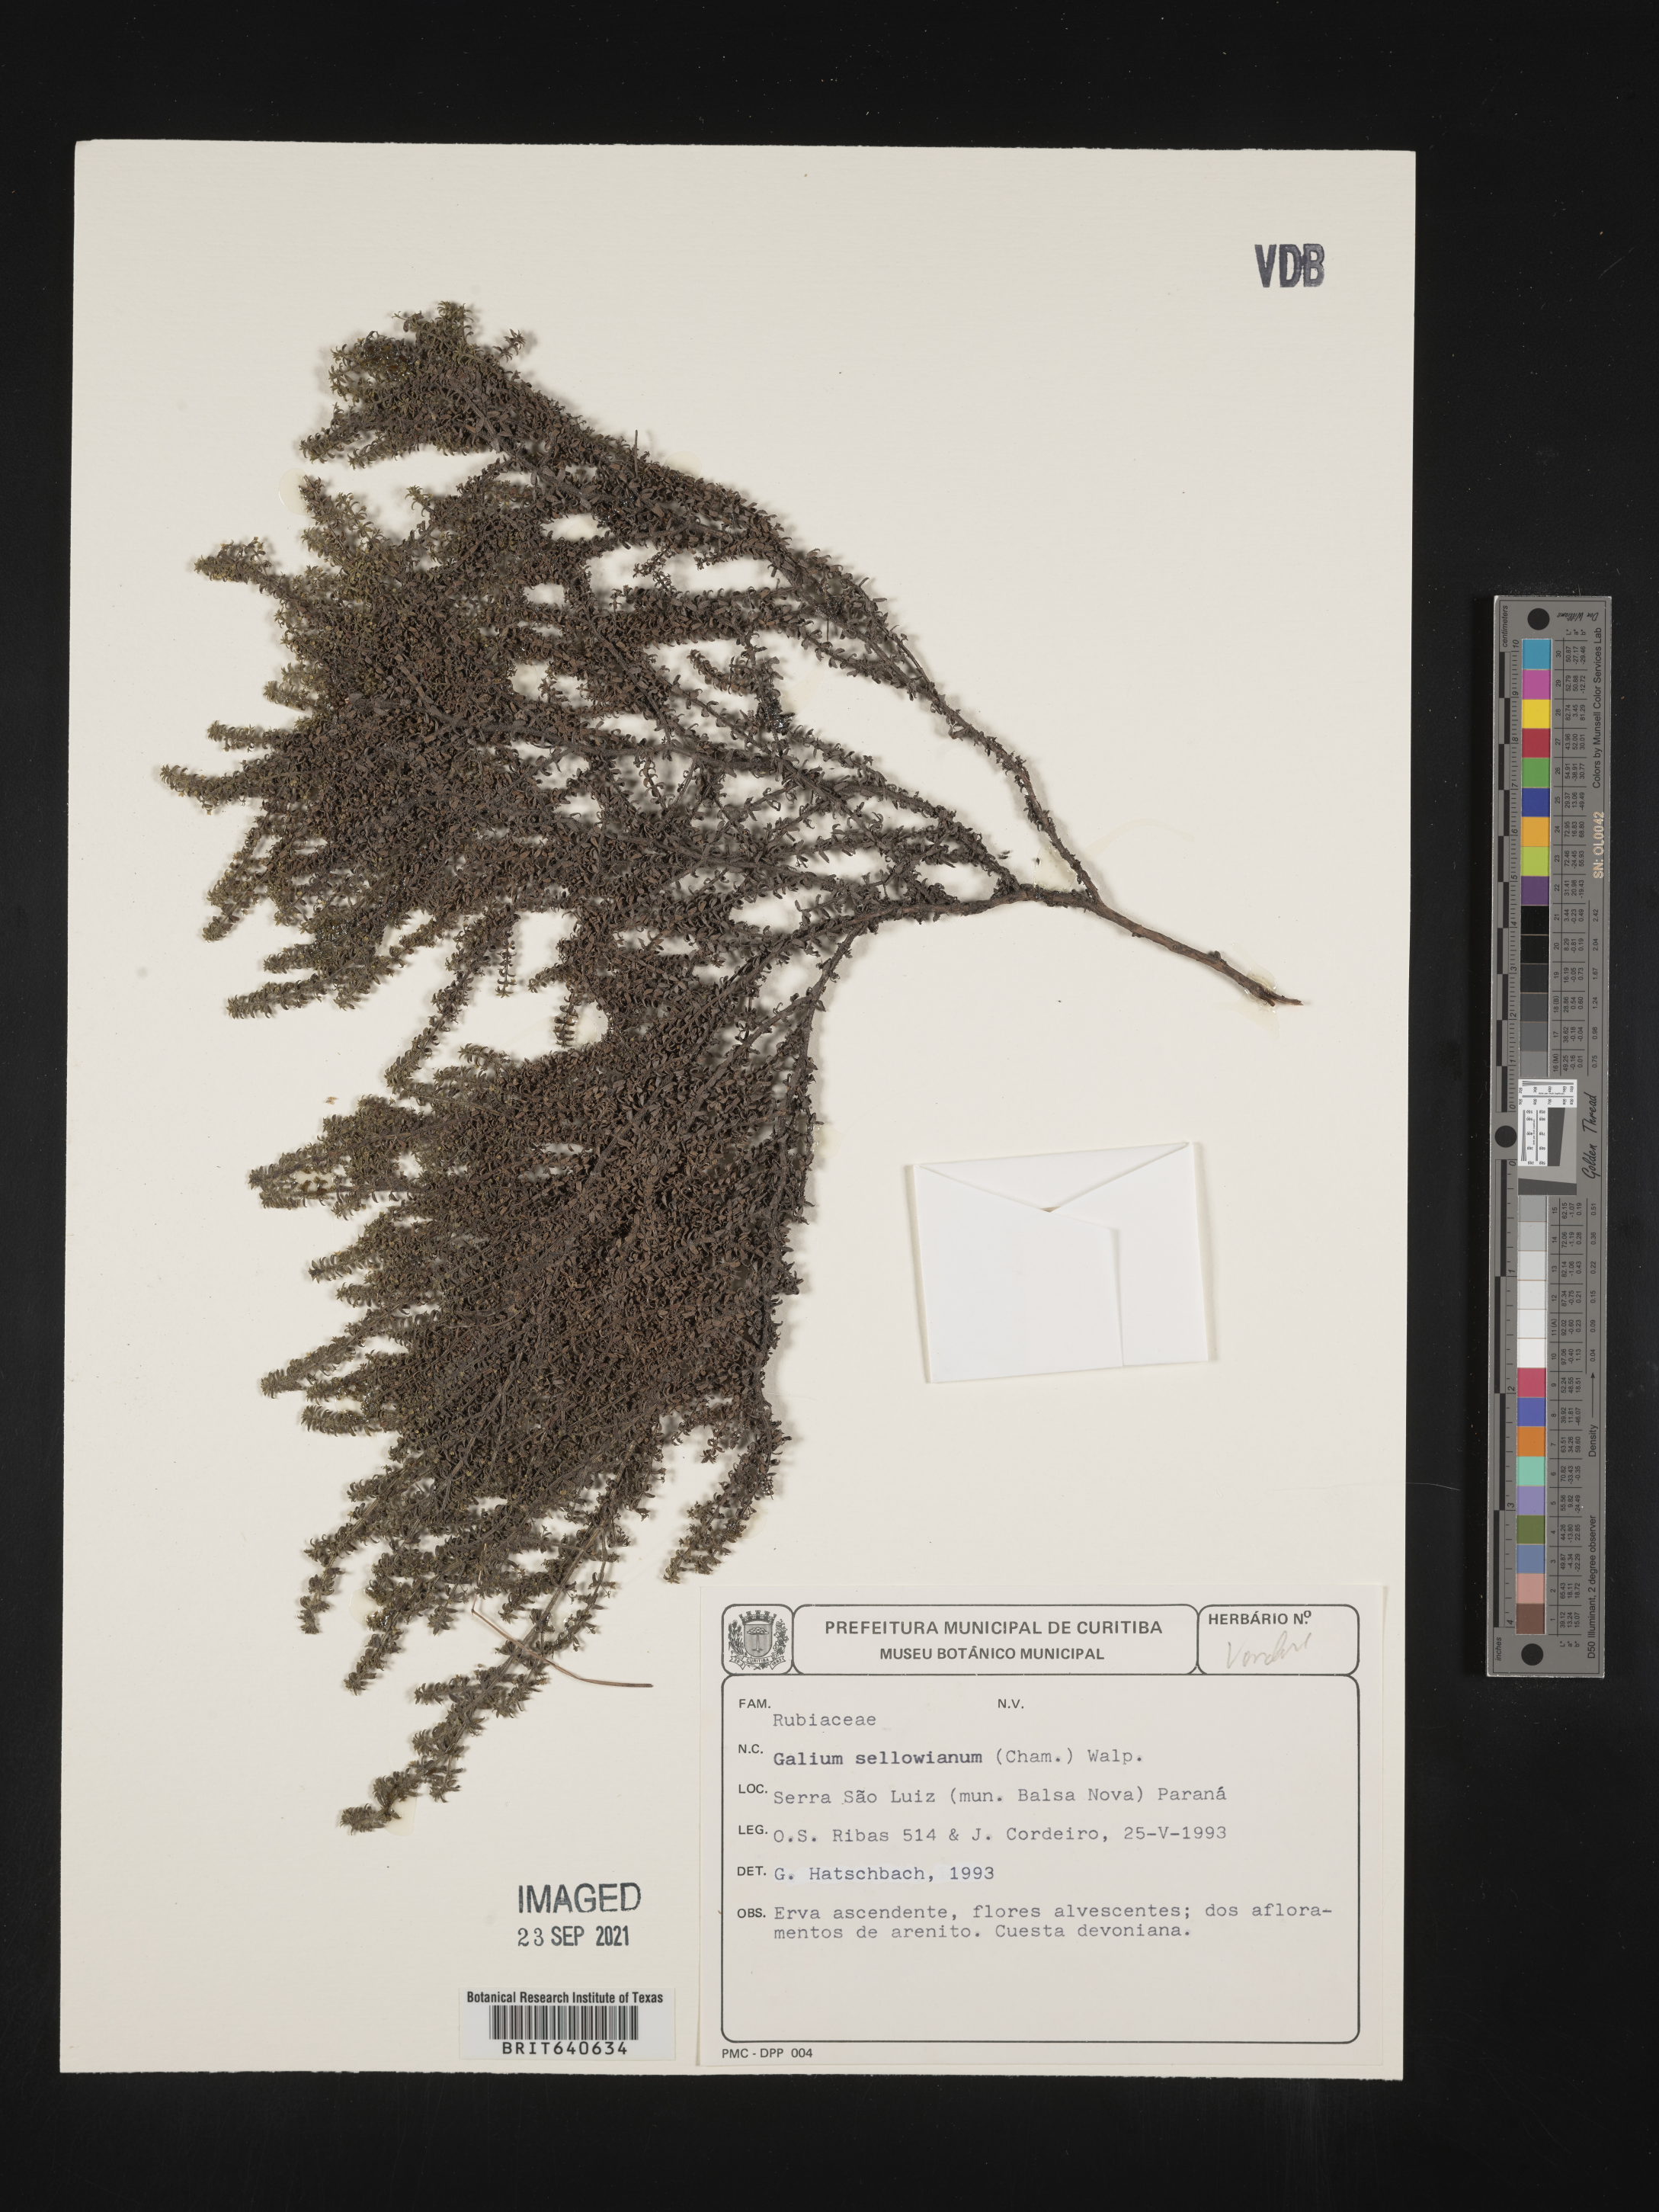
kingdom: Plantae
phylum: Tracheophyta
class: Magnoliopsida
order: Gentianales
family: Rubiaceae
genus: Galium
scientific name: Galium
